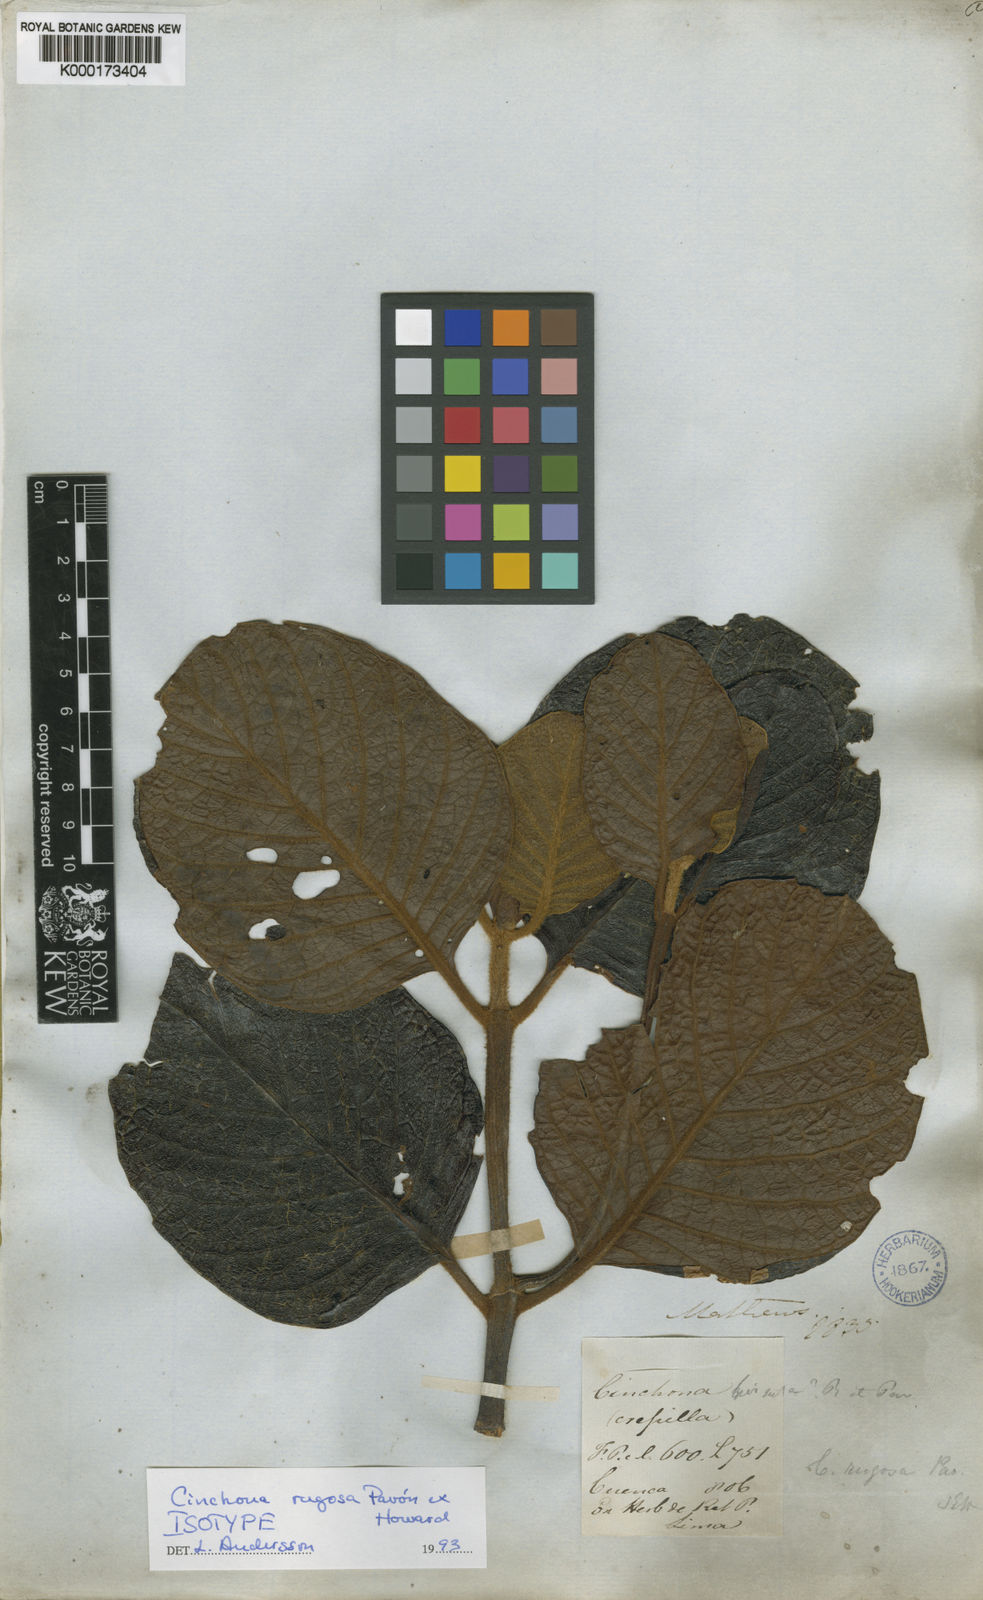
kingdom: Plantae
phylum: Tracheophyta
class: Magnoliopsida
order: Gentianales
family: Rubiaceae
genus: Cinchona
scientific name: Cinchona
